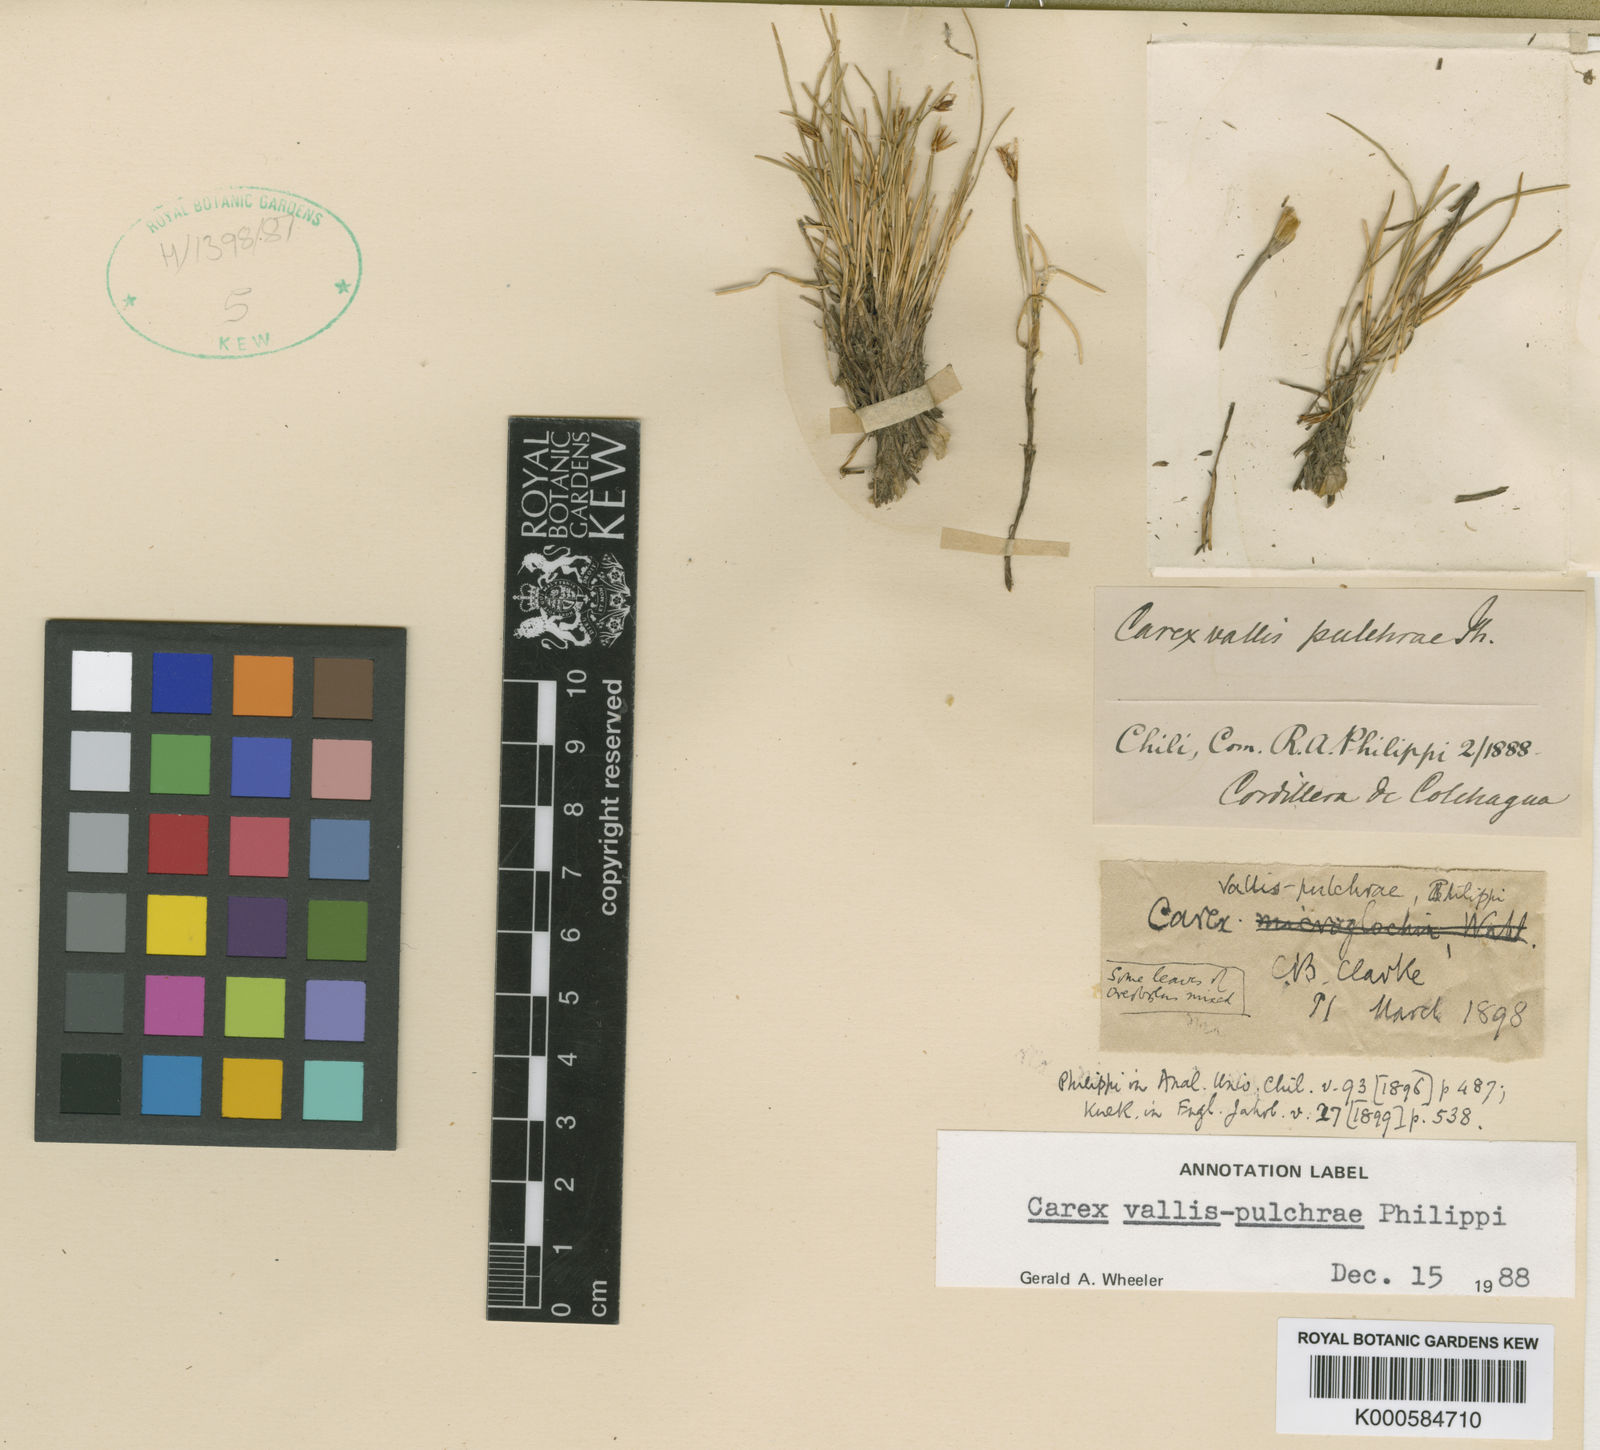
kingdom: Plantae
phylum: Tracheophyta
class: Liliopsida
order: Poales
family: Cyperaceae
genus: Carex
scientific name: Carex vallis-pulchrae
